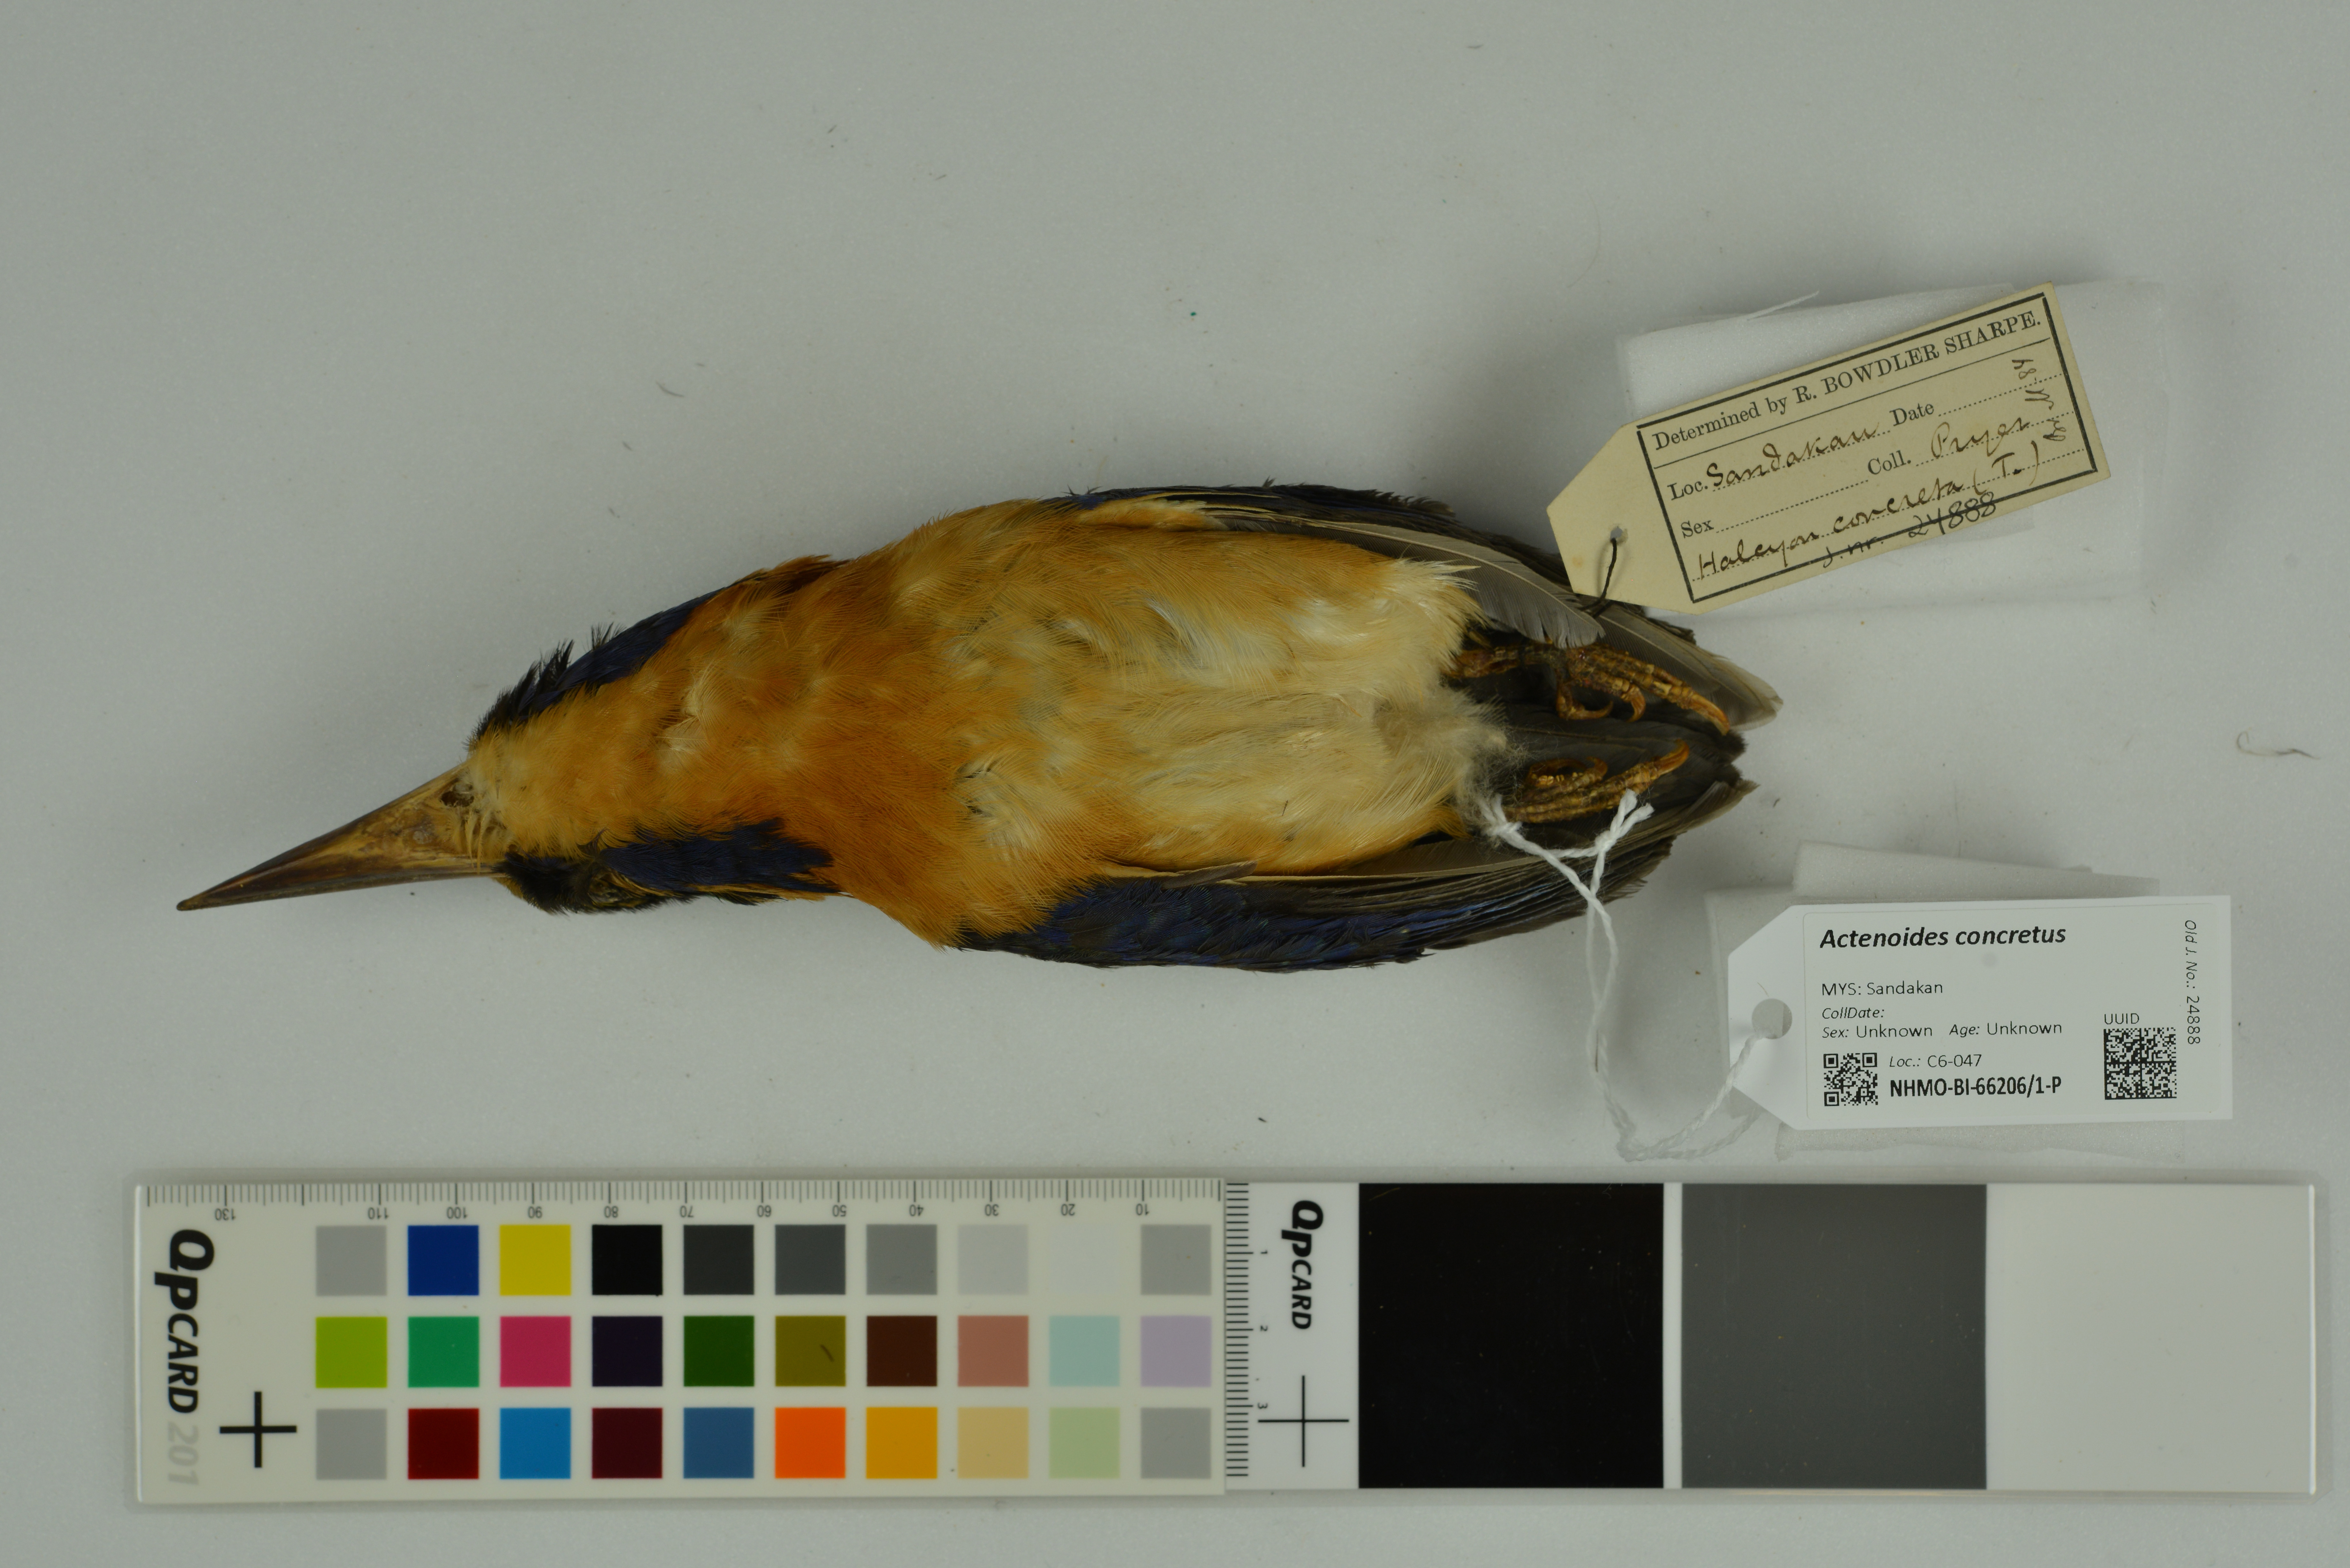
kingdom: Animalia
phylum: Chordata
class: Aves
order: Coraciiformes
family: Alcedinidae
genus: Actenoides
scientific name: Actenoides concretus
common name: Rufous-collared kingfisher
